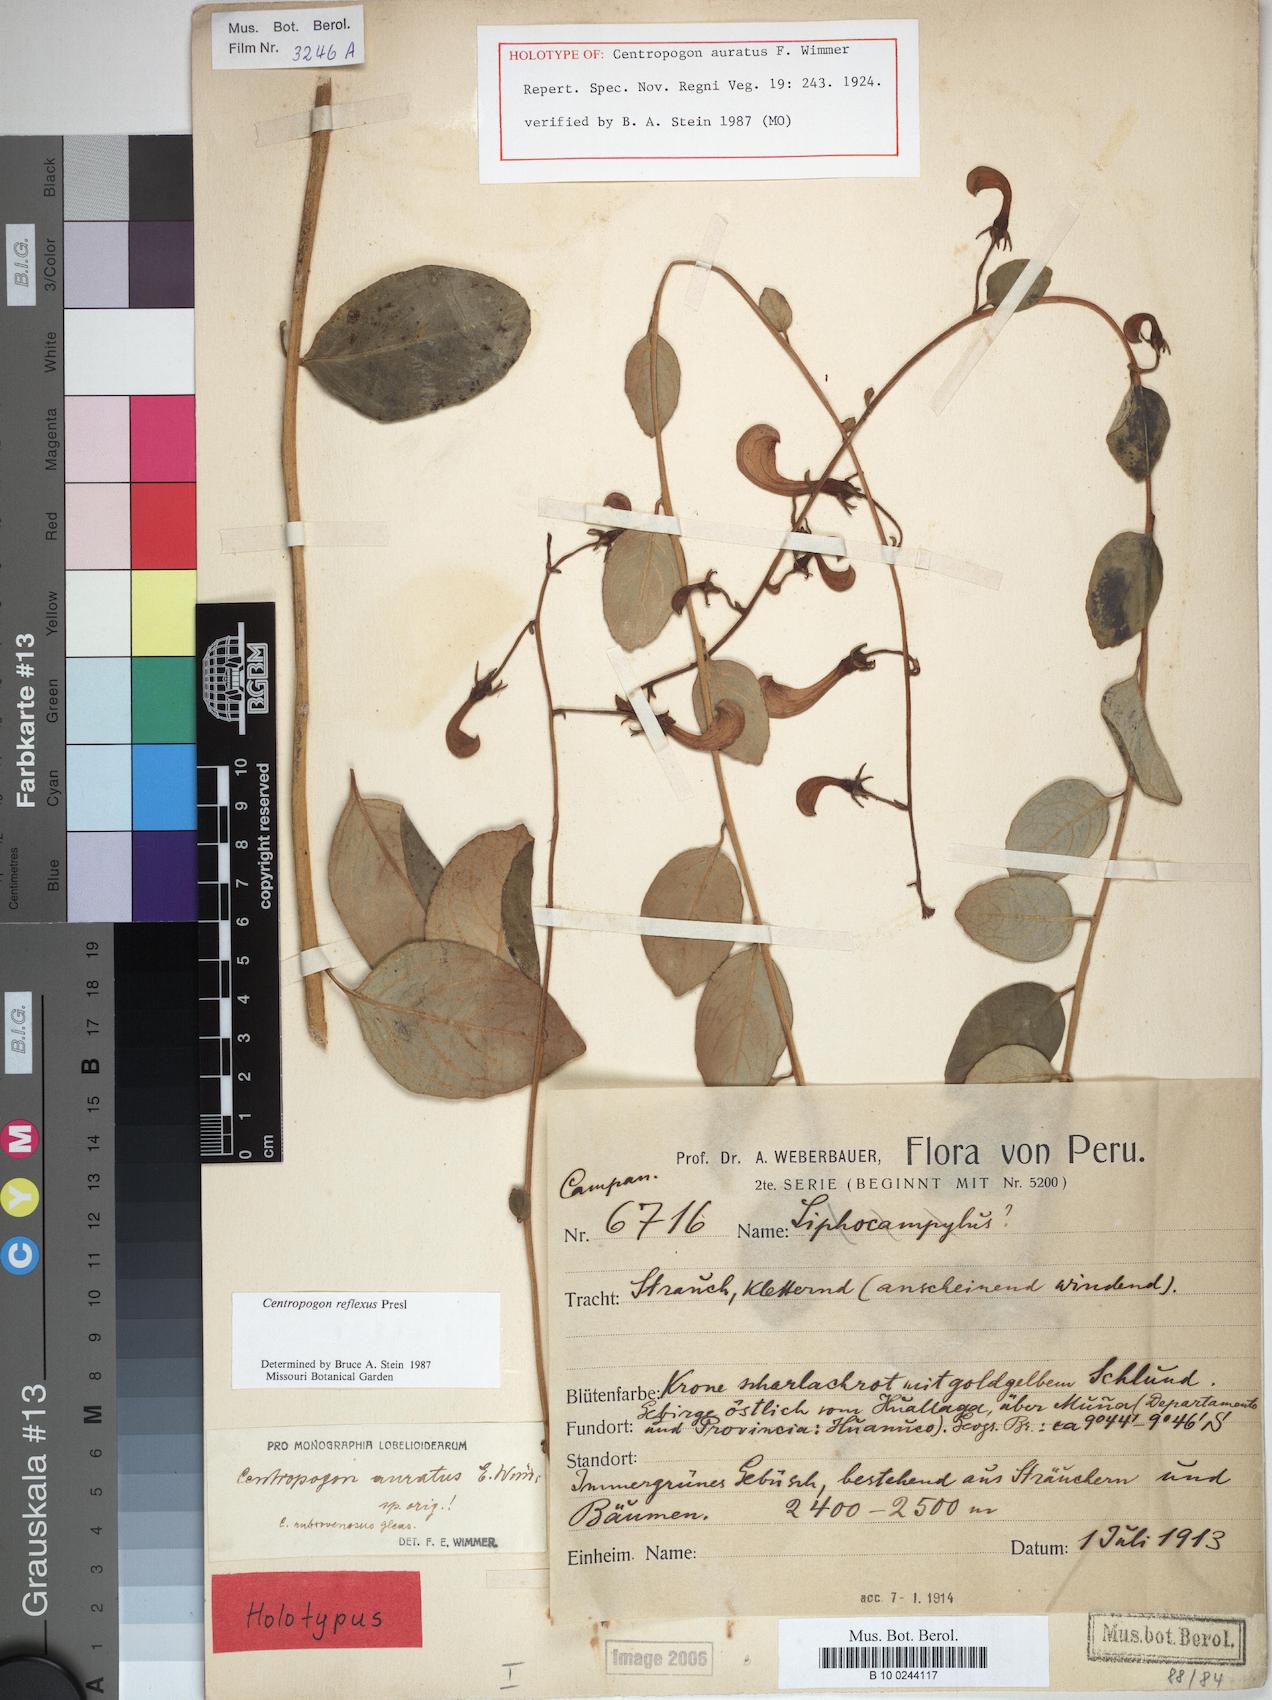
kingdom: Plantae
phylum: Tracheophyta
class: Magnoliopsida
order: Asterales
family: Campanulaceae
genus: Centropogon
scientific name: Centropogon reflexus
